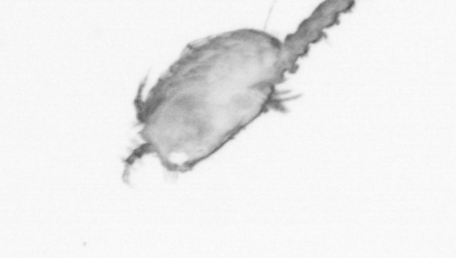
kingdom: Animalia
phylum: Annelida
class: Polychaeta
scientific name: Polychaeta
